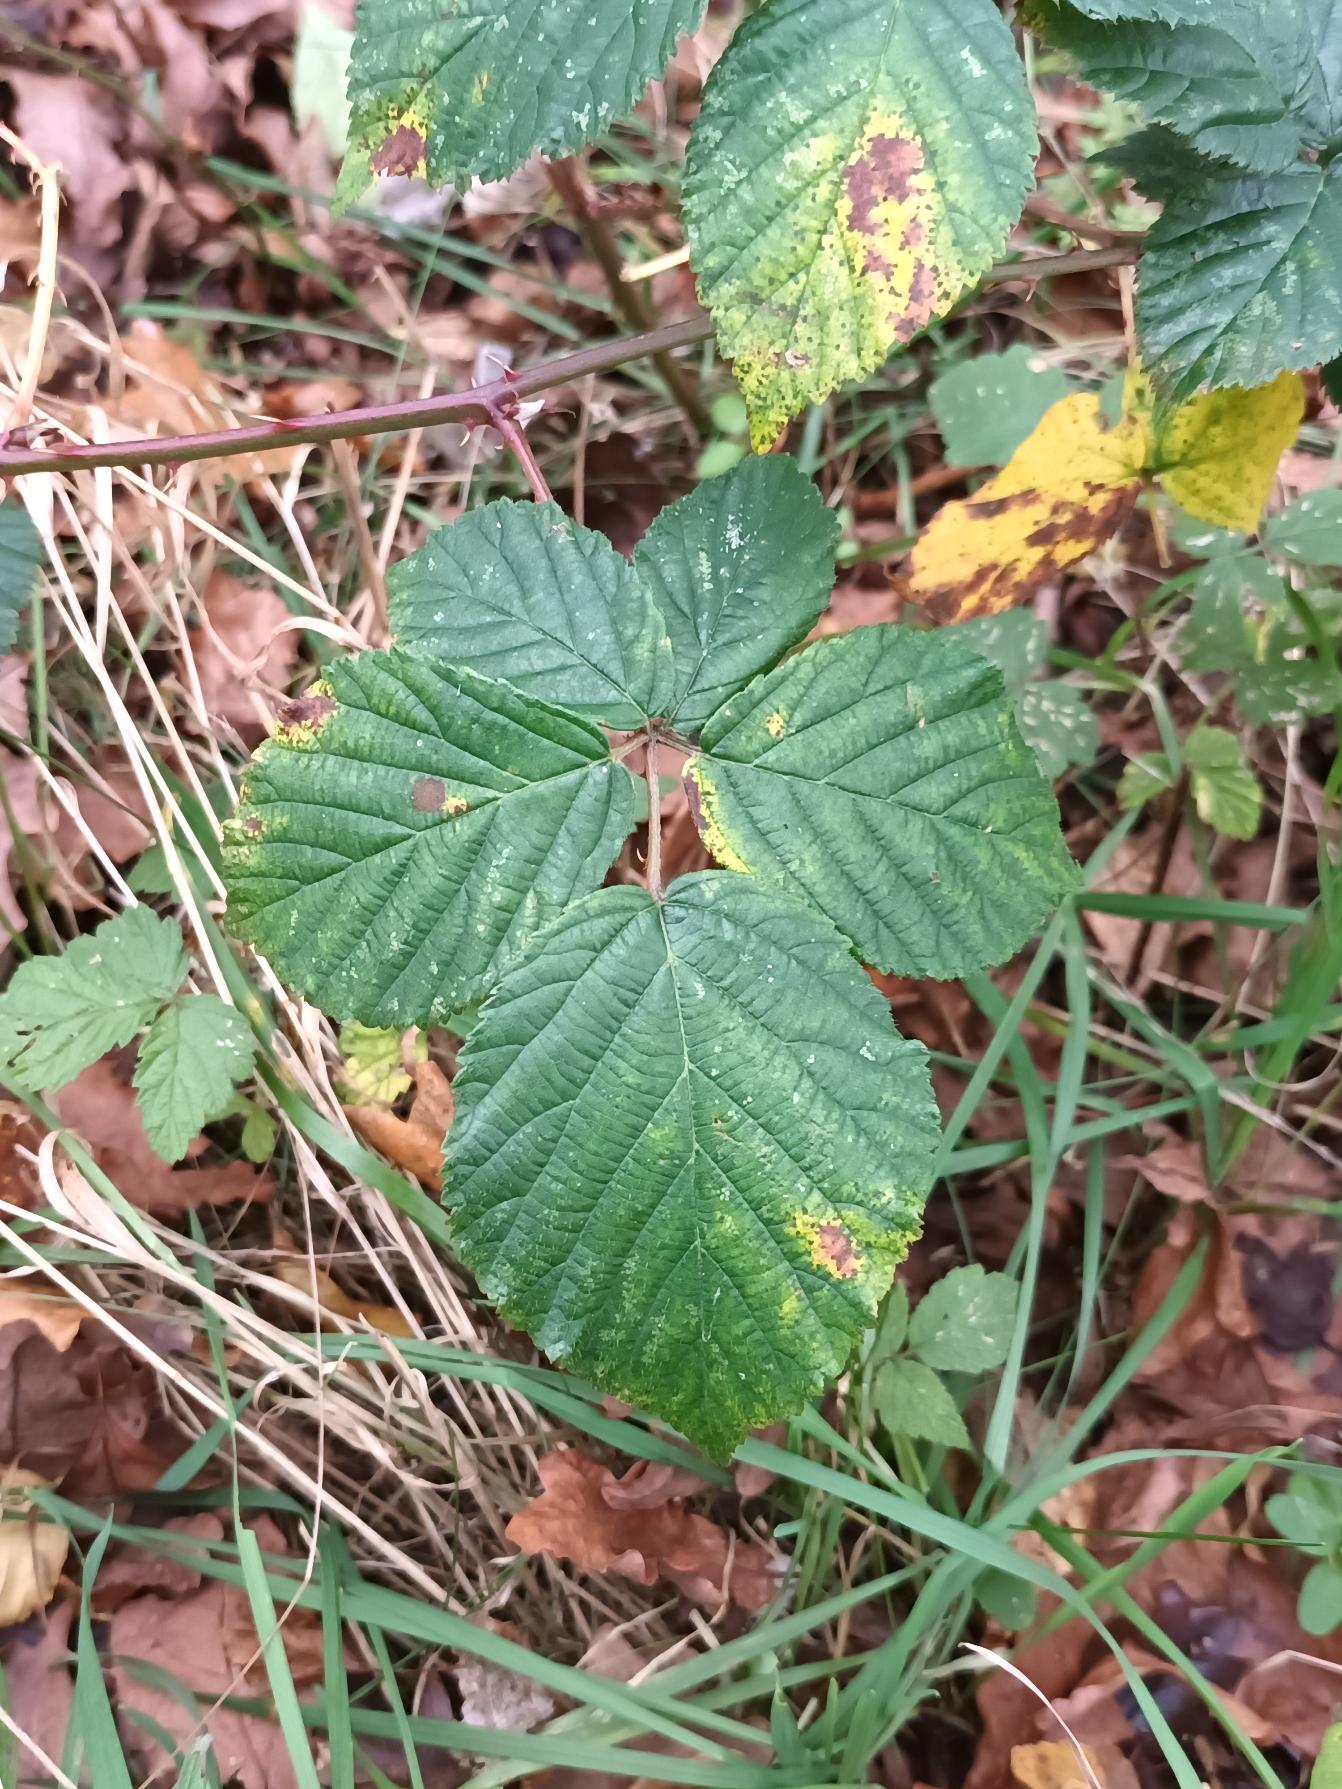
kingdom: Plantae
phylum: Tracheophyta
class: Magnoliopsida
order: Rosales
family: Rosaceae
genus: Rubus
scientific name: Rubus plicatus
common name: Almindelig brombær
